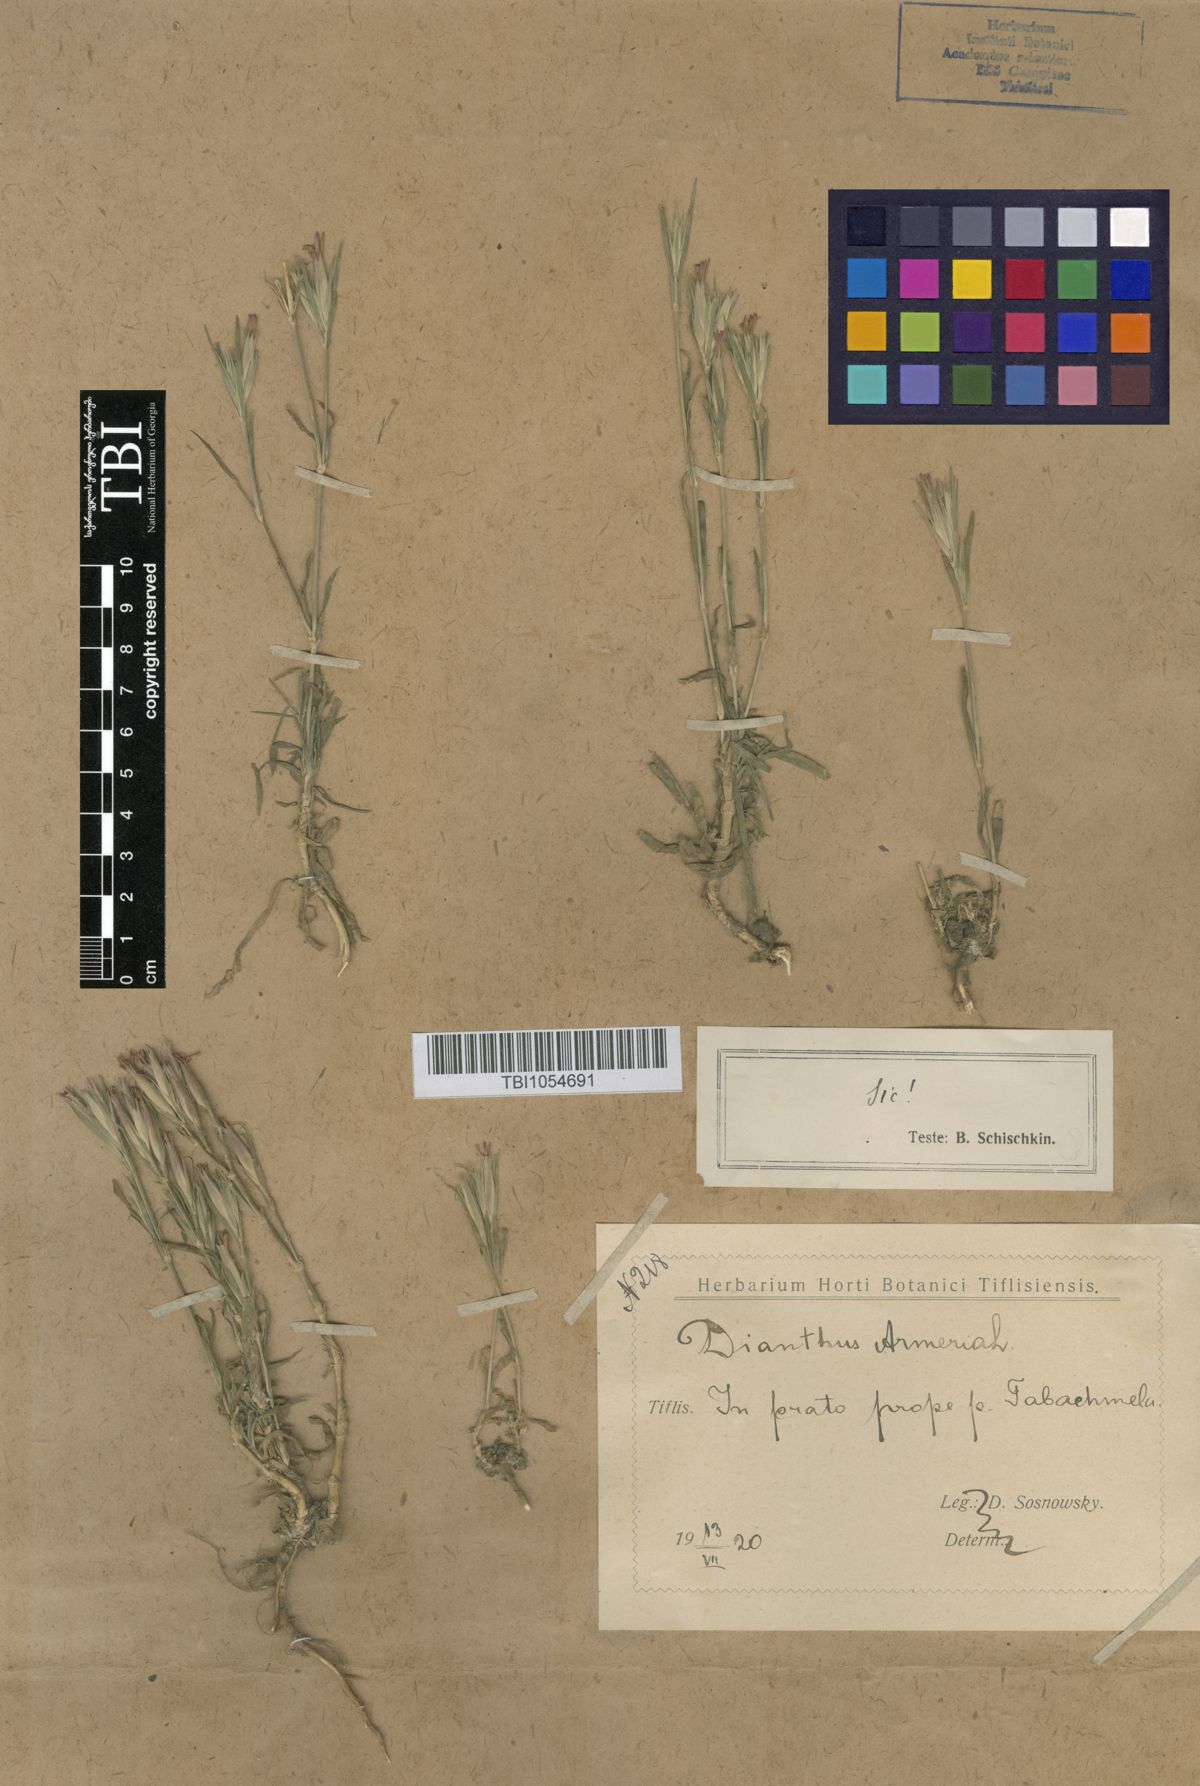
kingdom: Plantae
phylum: Tracheophyta
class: Magnoliopsida
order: Caryophyllales
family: Caryophyllaceae
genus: Dianthus
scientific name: Dianthus armeria
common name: Deptford pink
